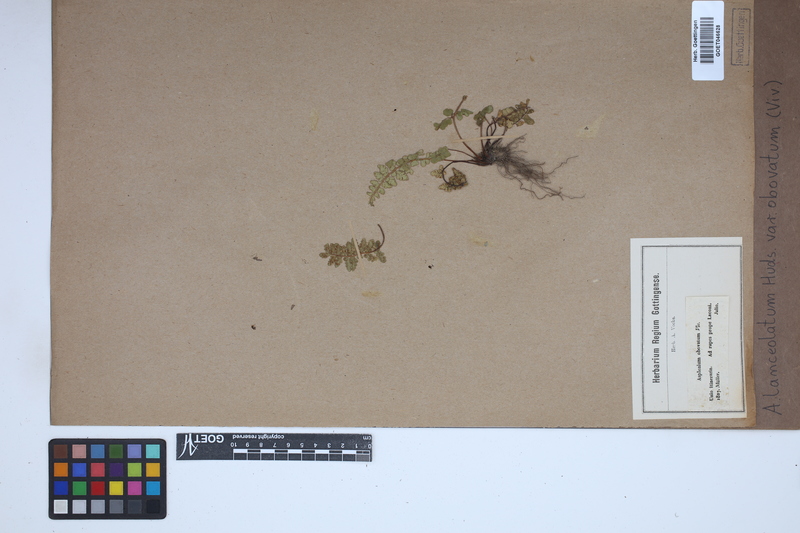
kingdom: Plantae
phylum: Tracheophyta
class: Polypodiopsida
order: Polypodiales
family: Aspleniaceae
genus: Asplenium
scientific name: Asplenium obovatum
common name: Lanceolate spleenwort
